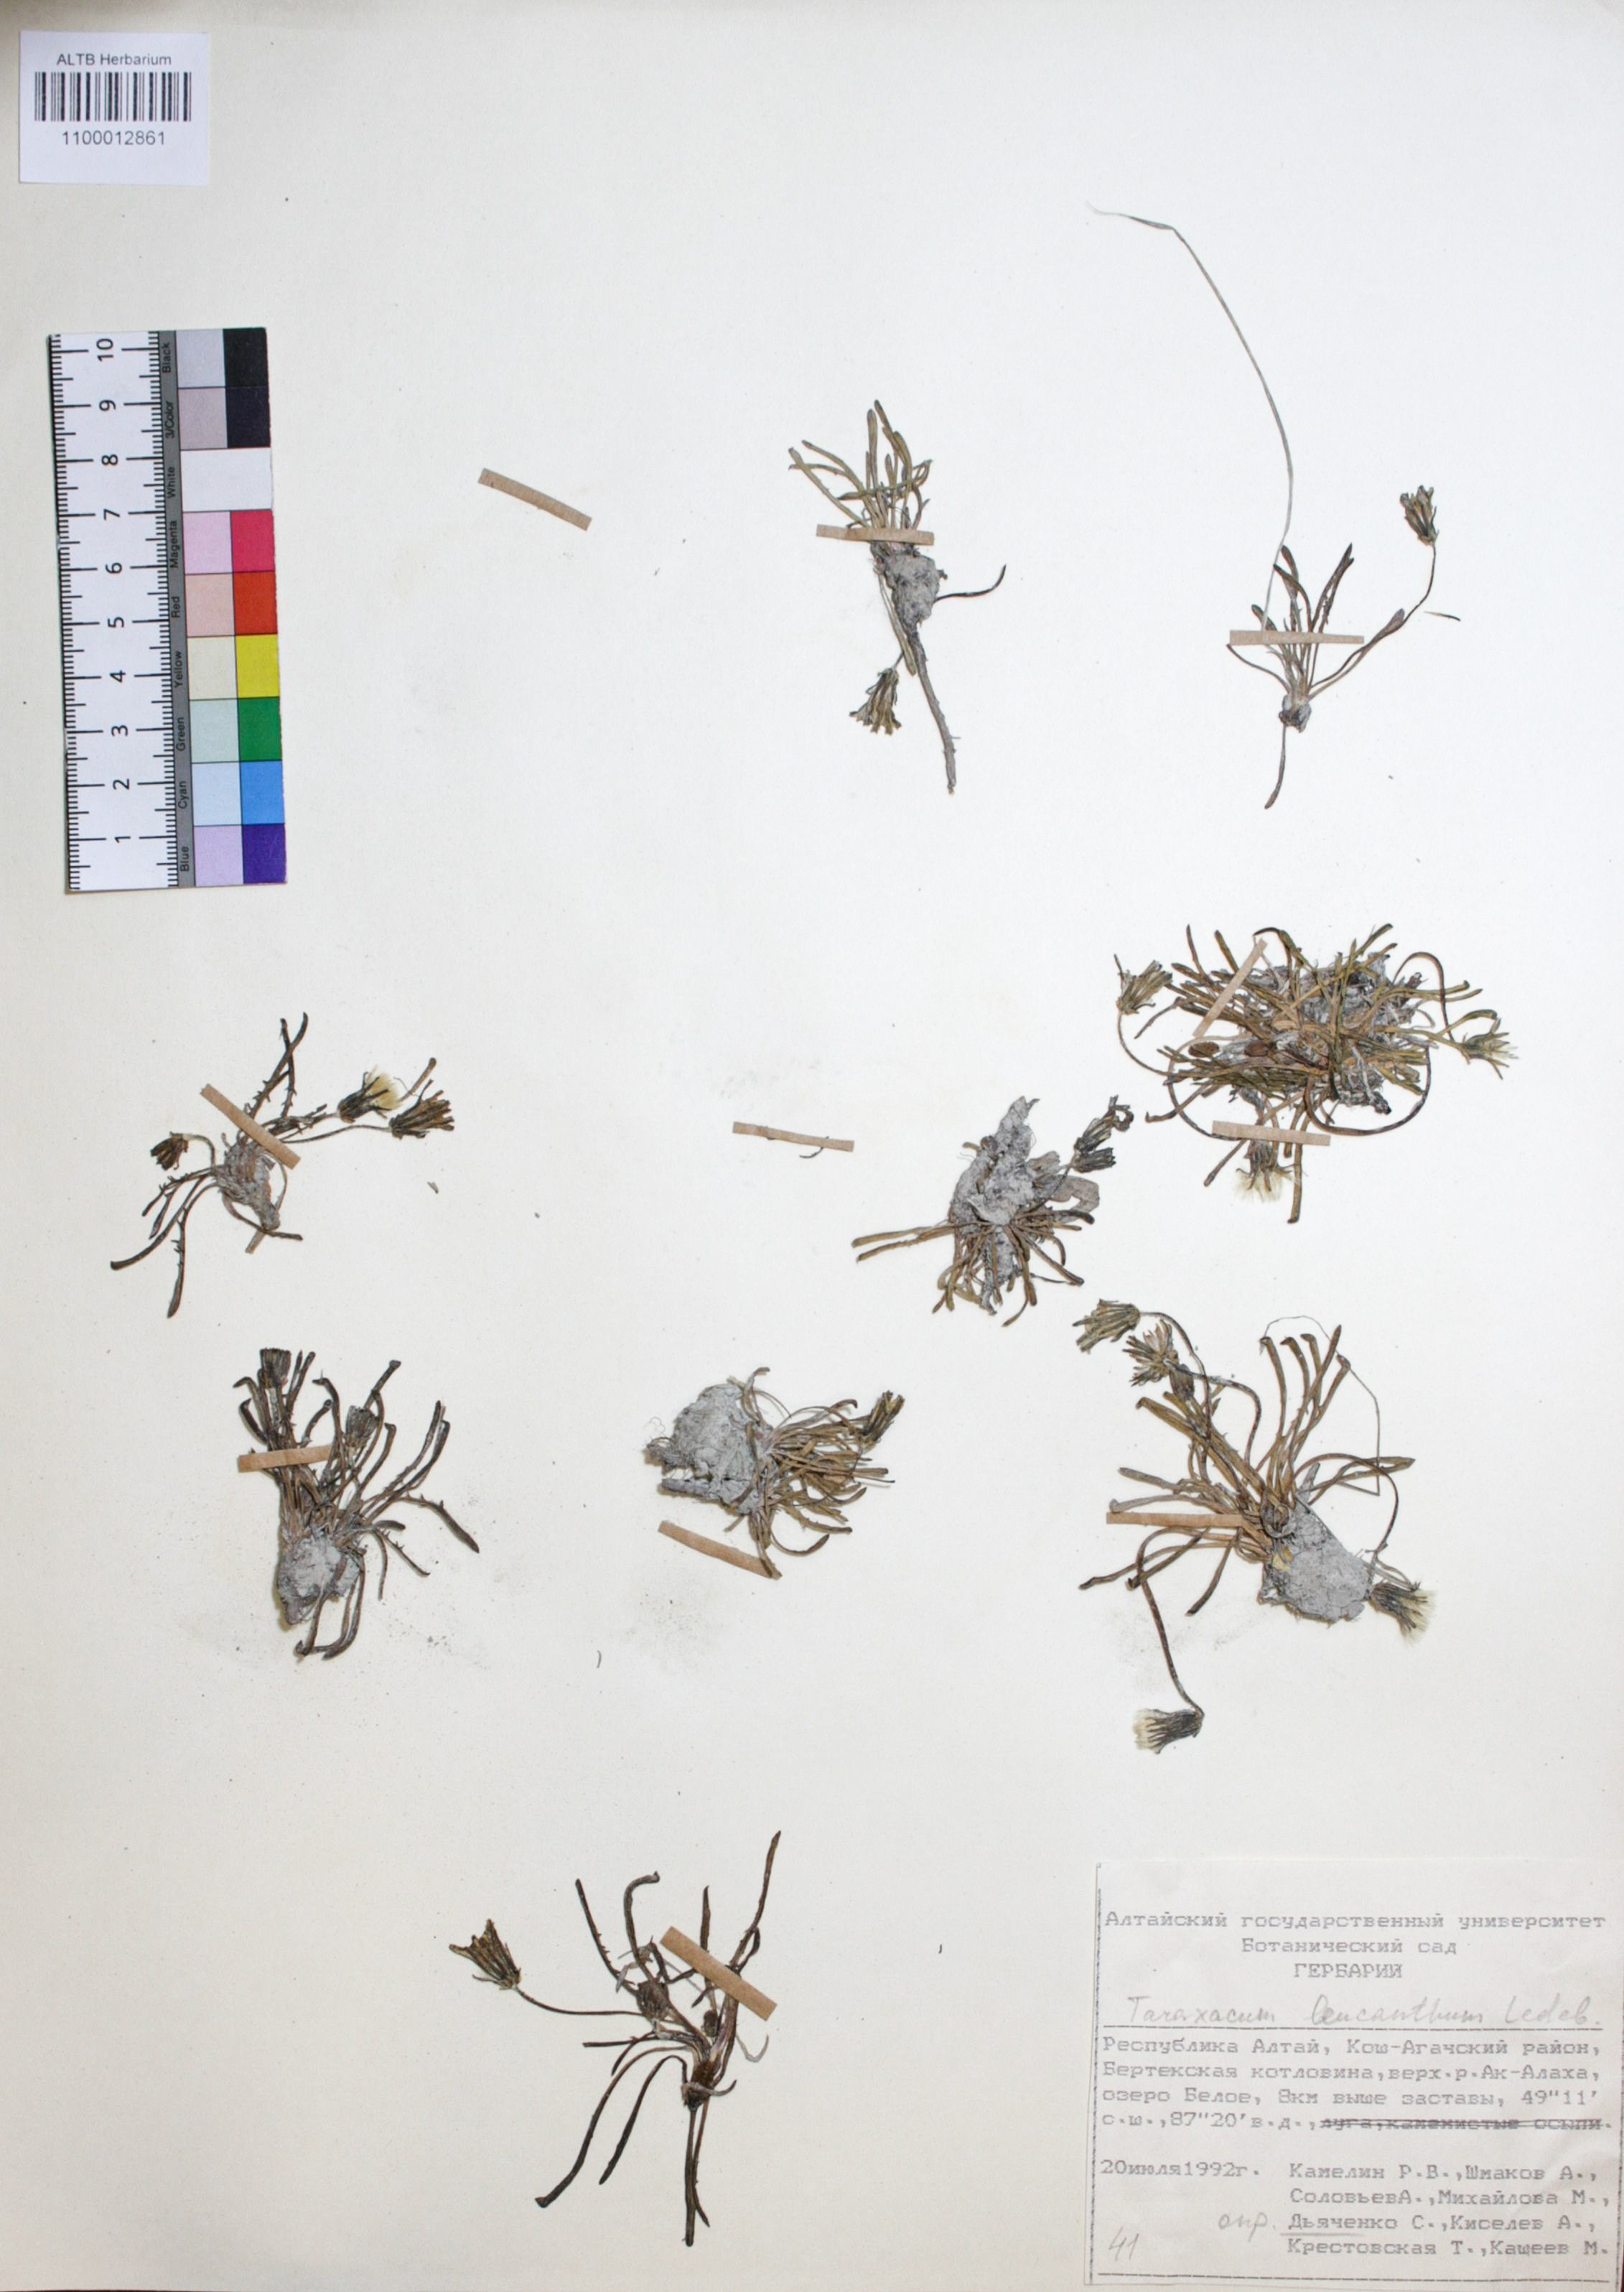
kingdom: Plantae
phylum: Tracheophyta
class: Magnoliopsida
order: Asterales
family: Asteraceae
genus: Taraxacum
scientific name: Taraxacum leucanthum
